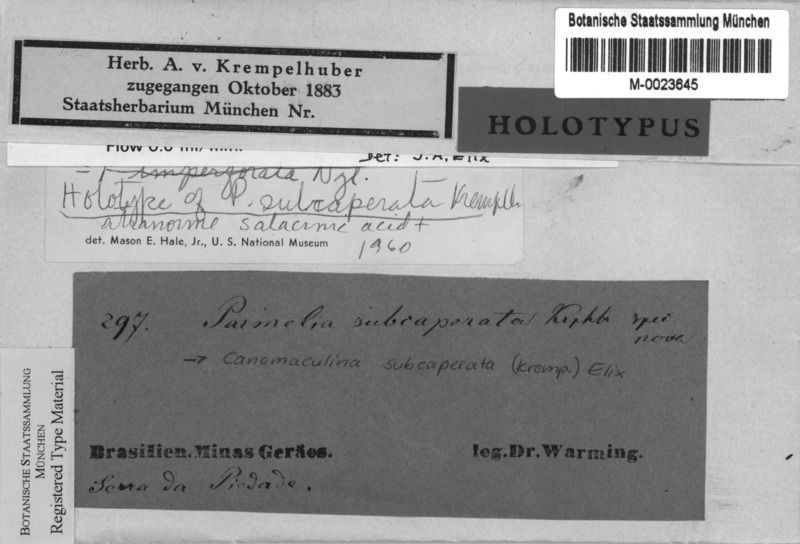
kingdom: Fungi
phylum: Ascomycota
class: Lecanoromycetes
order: Lecanorales
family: Parmeliaceae
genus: Parmotrema
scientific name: Parmotrema subcaperatum
